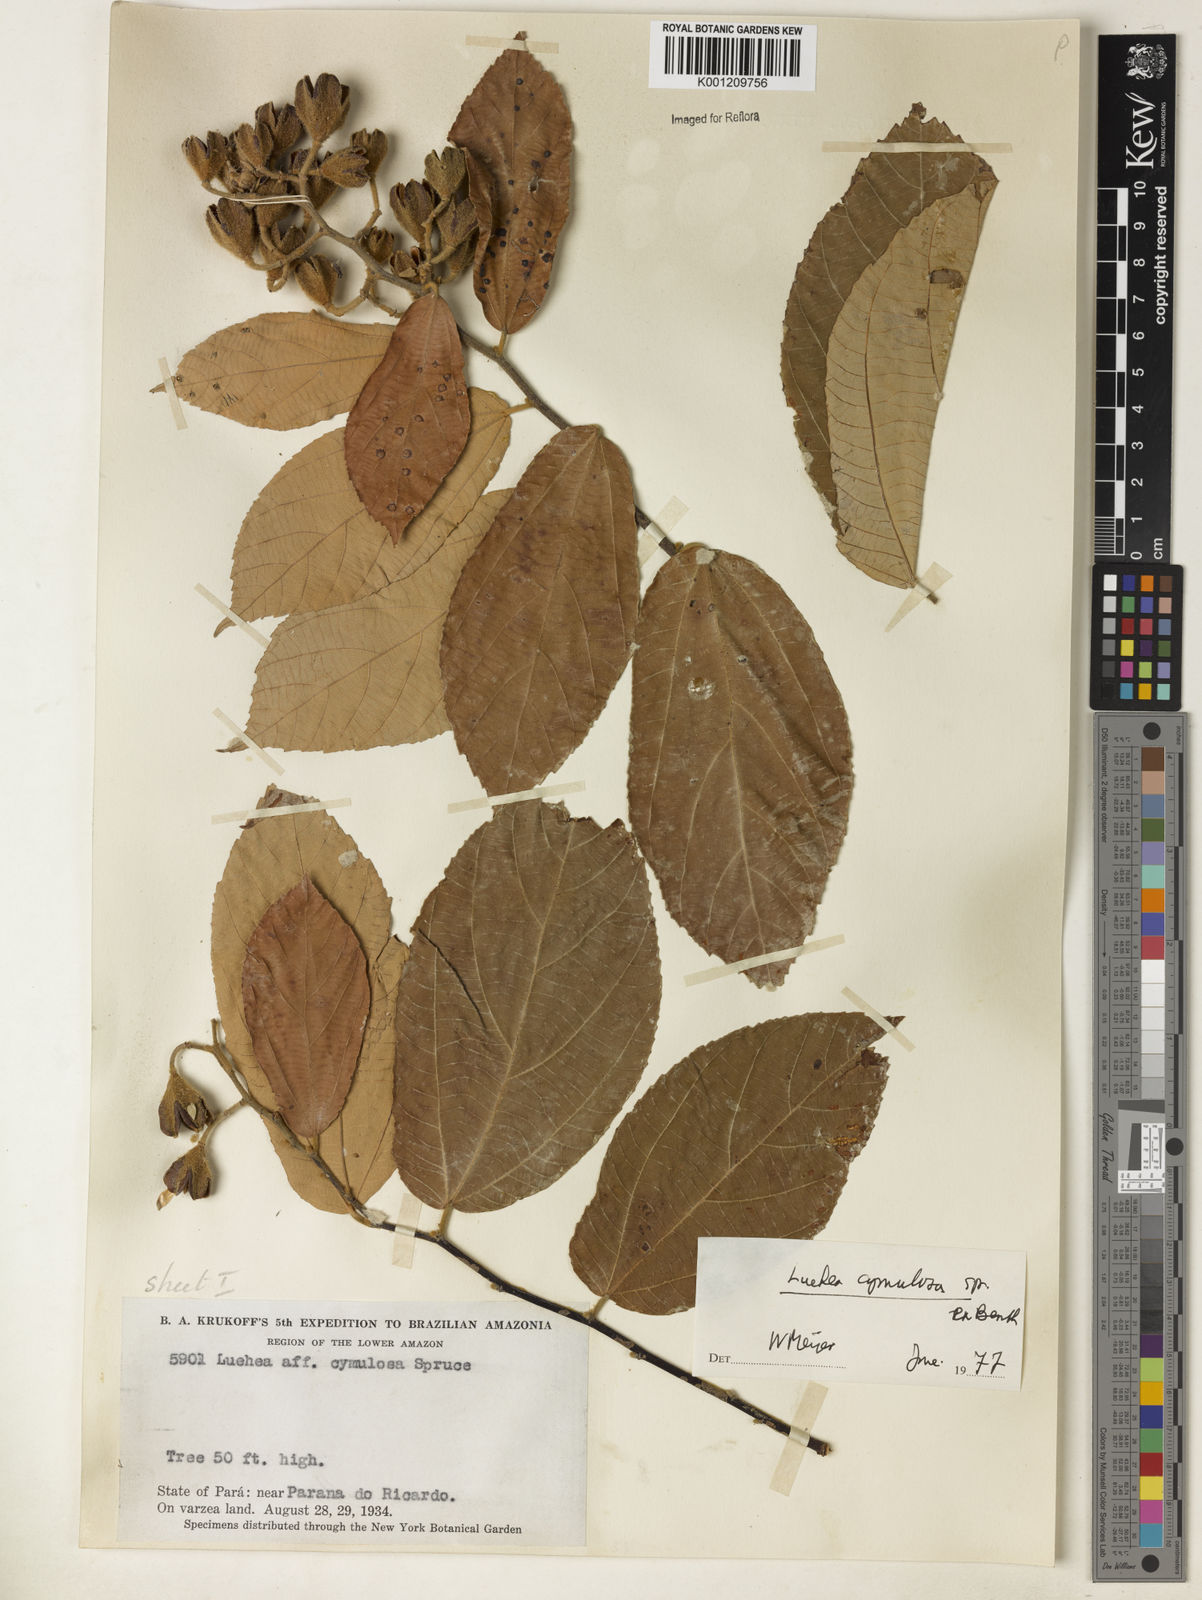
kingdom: Plantae
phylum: Tracheophyta
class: Magnoliopsida
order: Malvales
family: Malvaceae
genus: Luehea
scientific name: Luehea cymulosa
